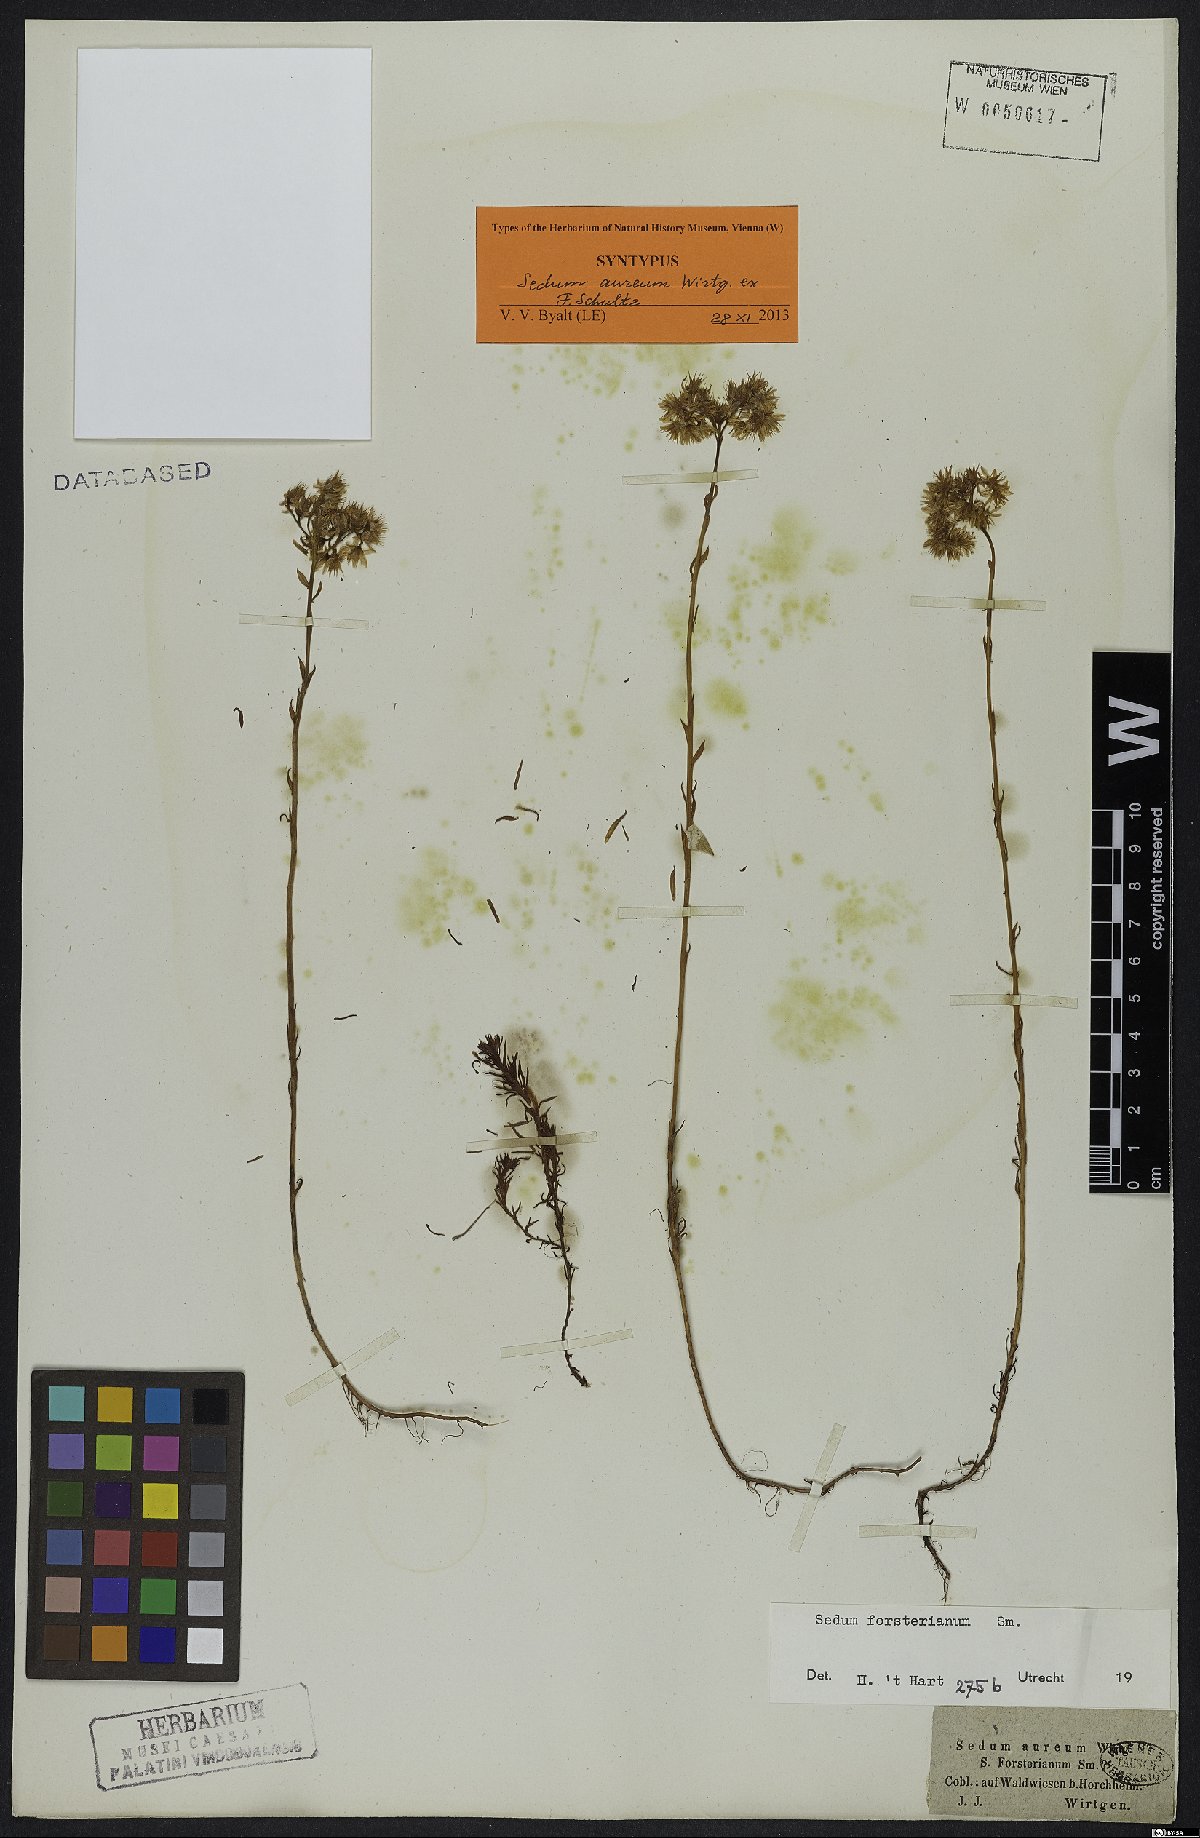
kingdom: Plantae
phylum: Tracheophyta
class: Magnoliopsida
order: Saxifragales
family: Crassulaceae
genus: Petrosedum
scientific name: Petrosedum forsterianum
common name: Forster's stonecrop
